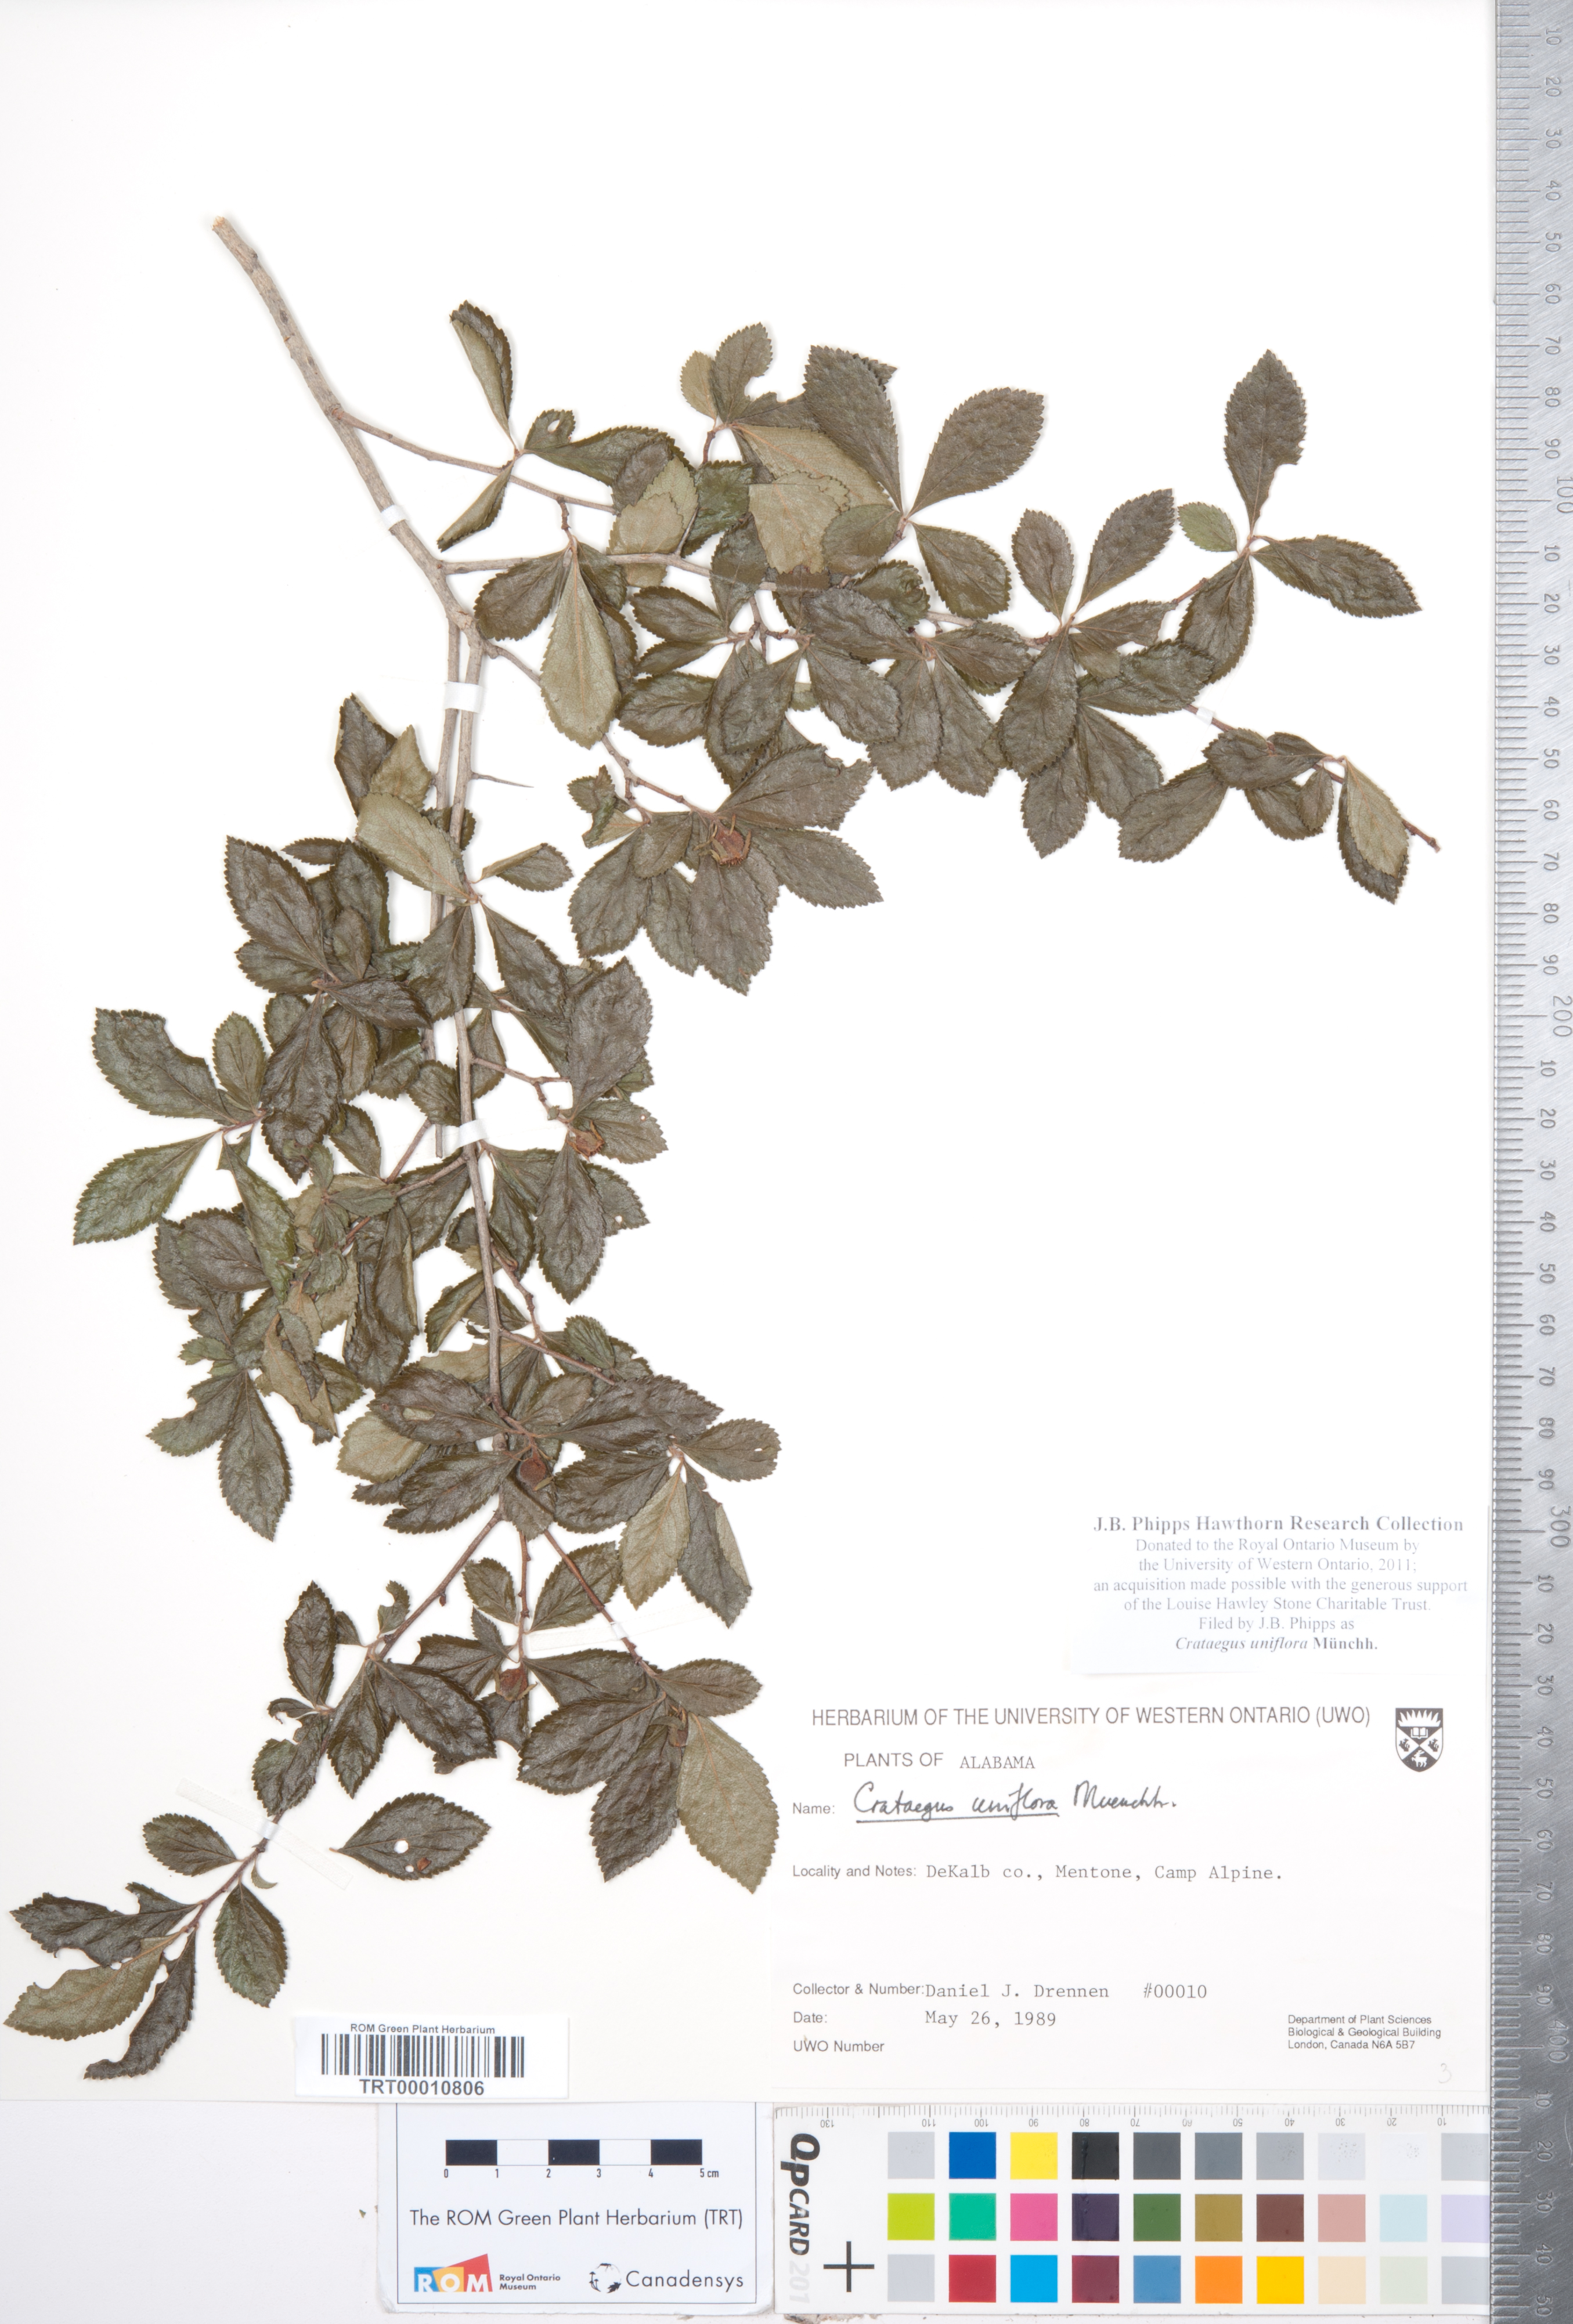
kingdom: Plantae
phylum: Tracheophyta
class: Magnoliopsida
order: Rosales
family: Rosaceae
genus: Crataegus
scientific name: Crataegus uniflora
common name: One-flower hawthorn
